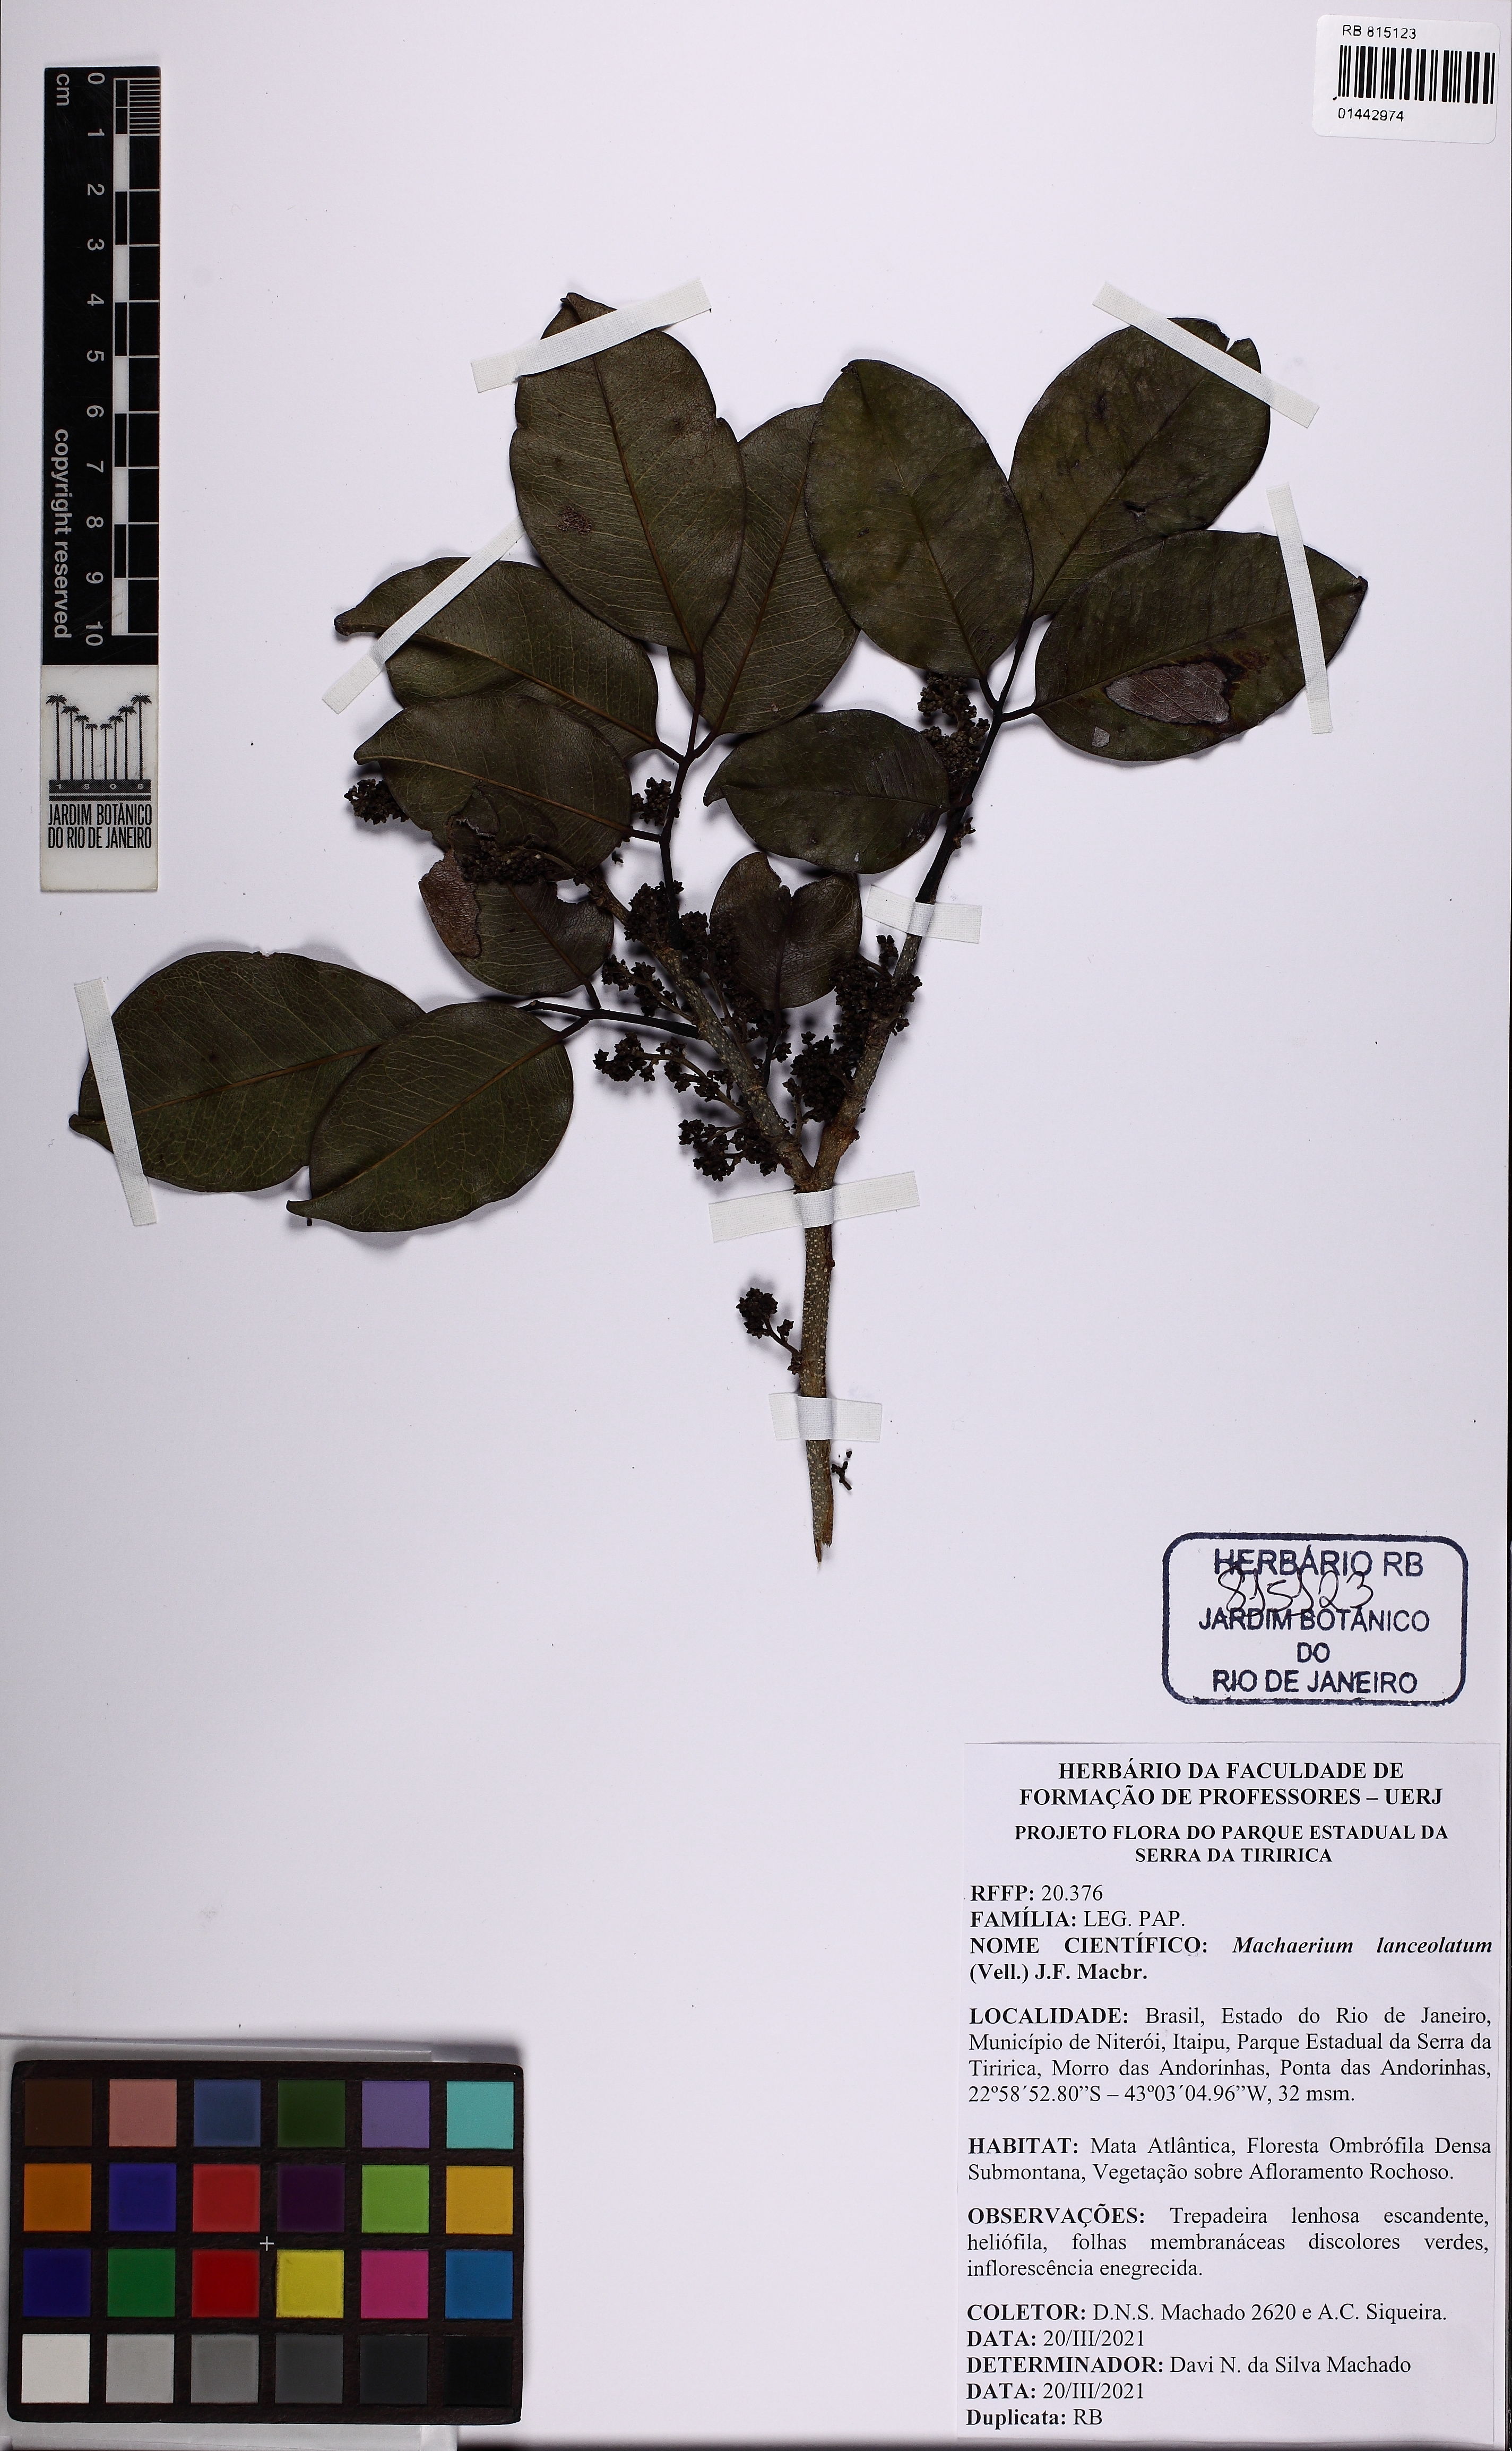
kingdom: Plantae
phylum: Tracheophyta
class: Magnoliopsida
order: Fabales
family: Fabaceae
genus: Machaerium
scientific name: Machaerium lanceolatum
